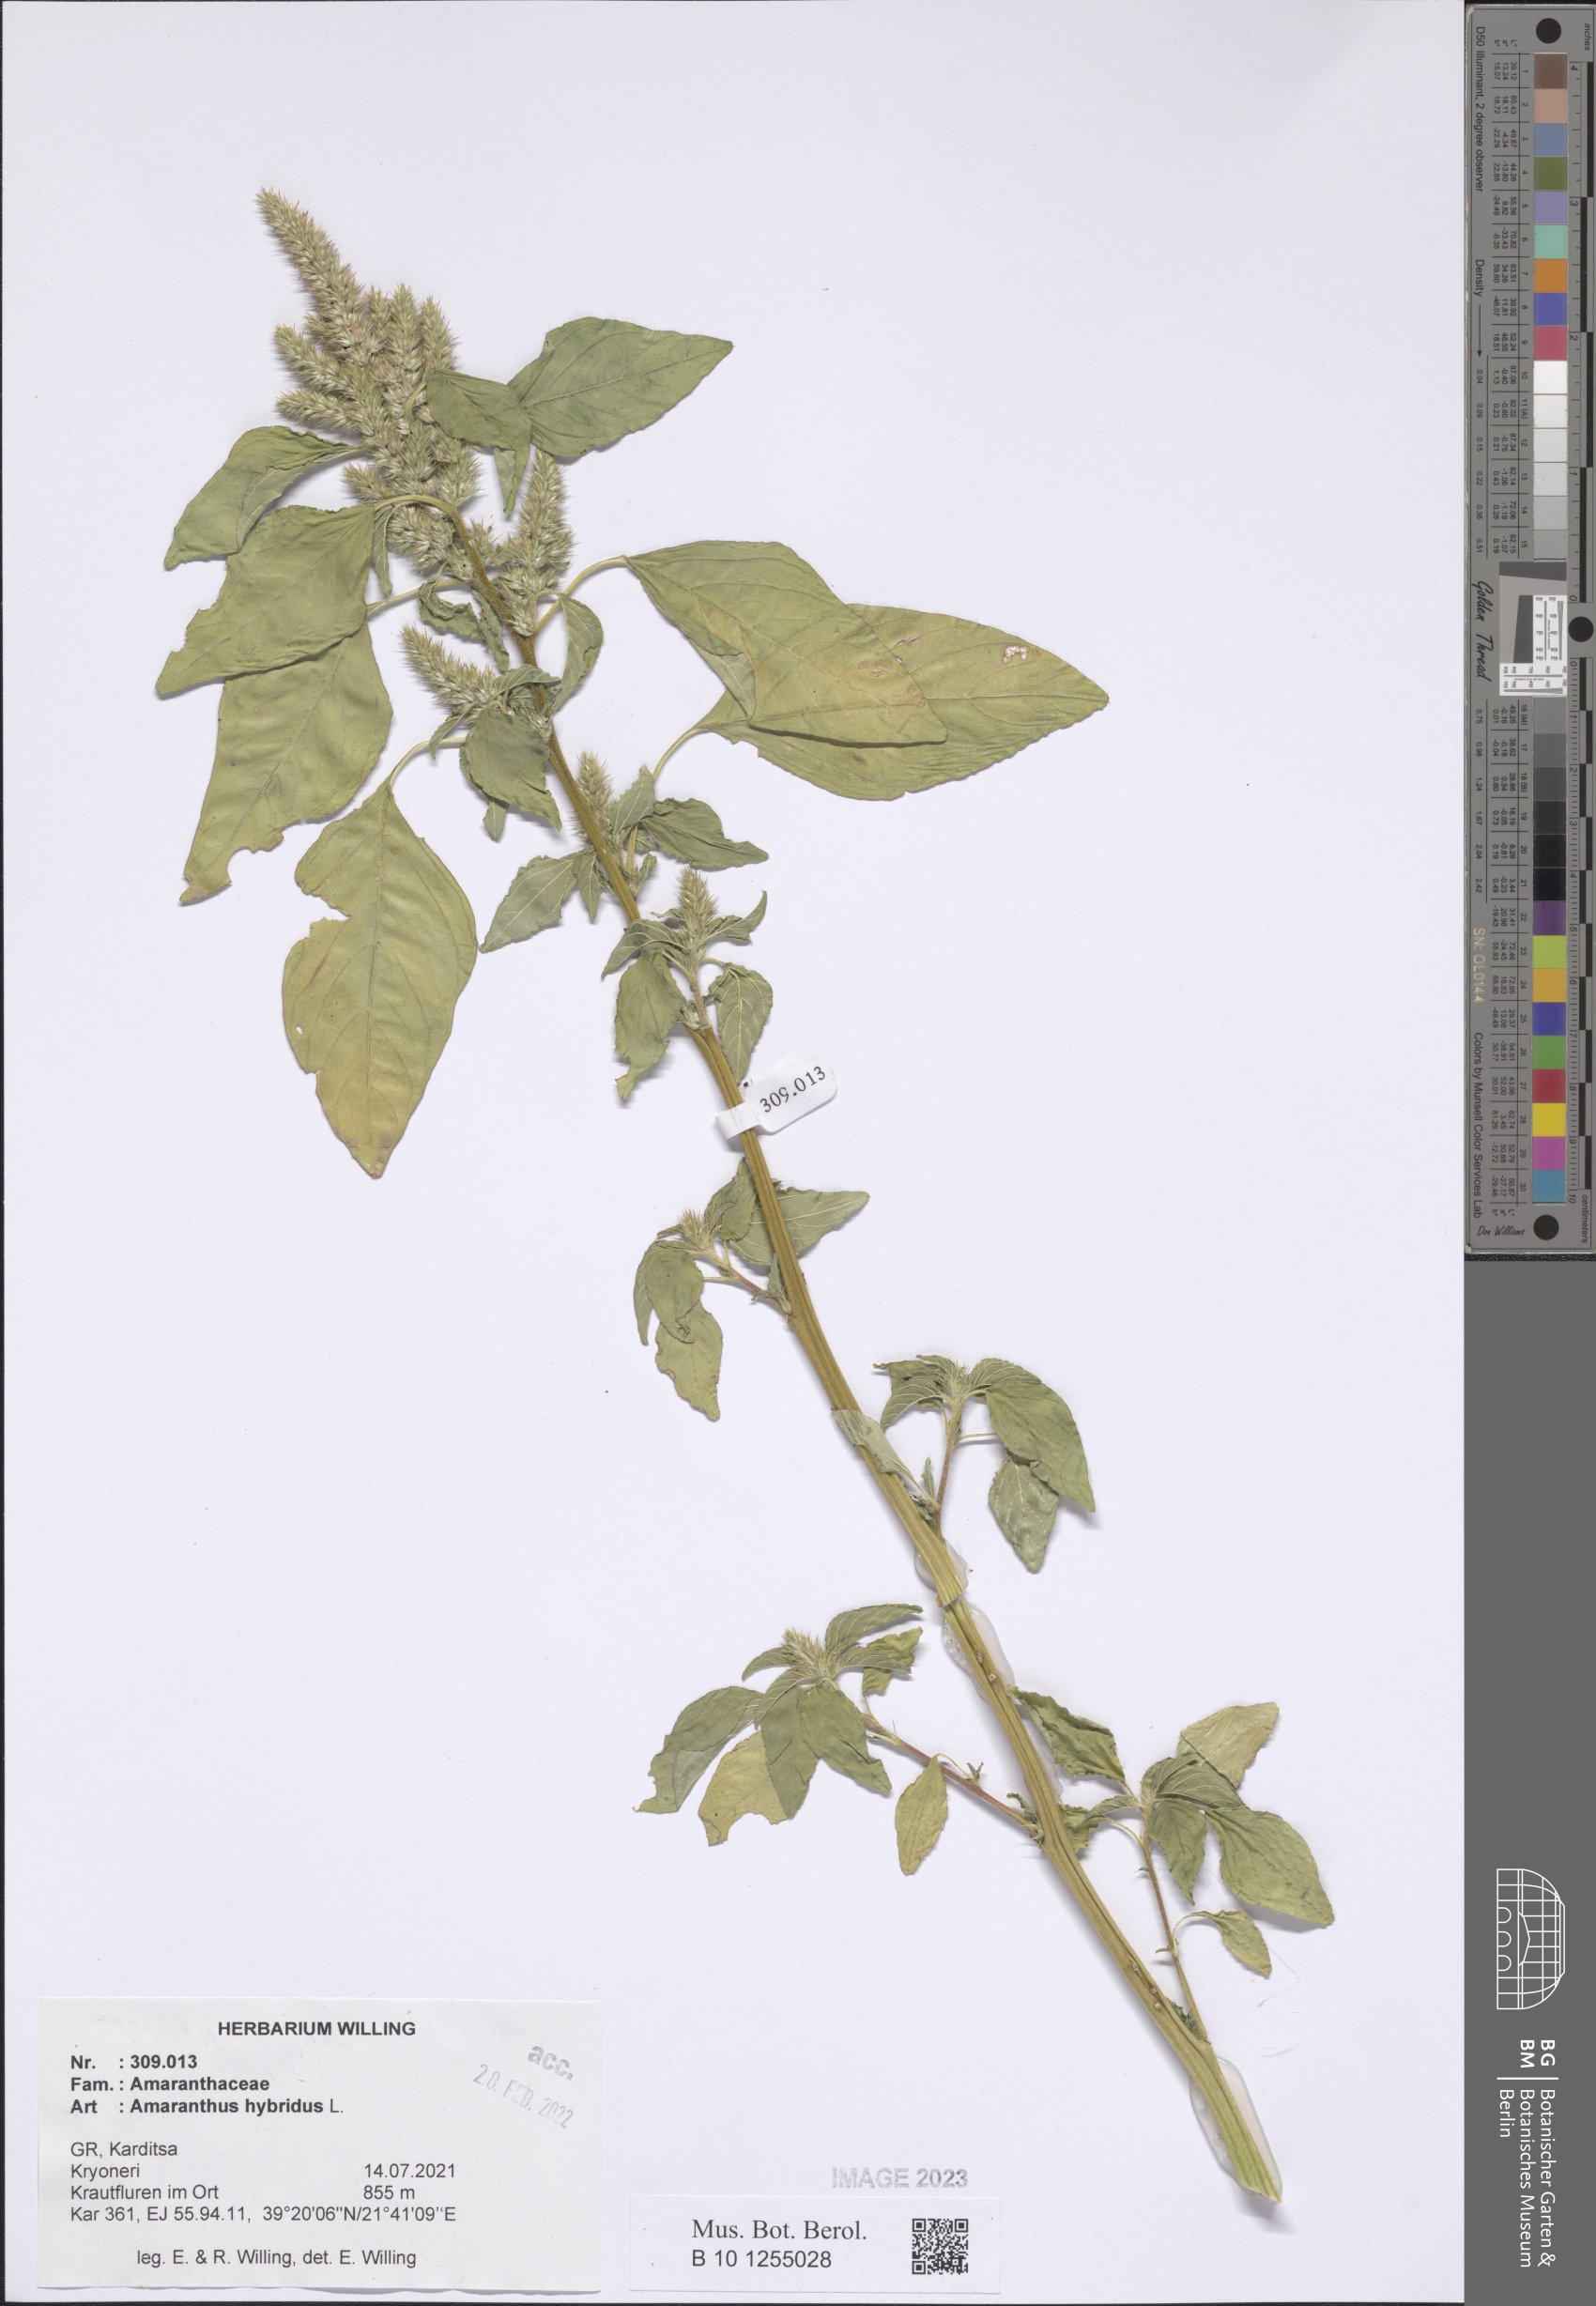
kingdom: Plantae
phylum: Tracheophyta
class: Magnoliopsida
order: Caryophyllales
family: Amaranthaceae
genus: Amaranthus
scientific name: Amaranthus hybridus
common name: Green amaranth
